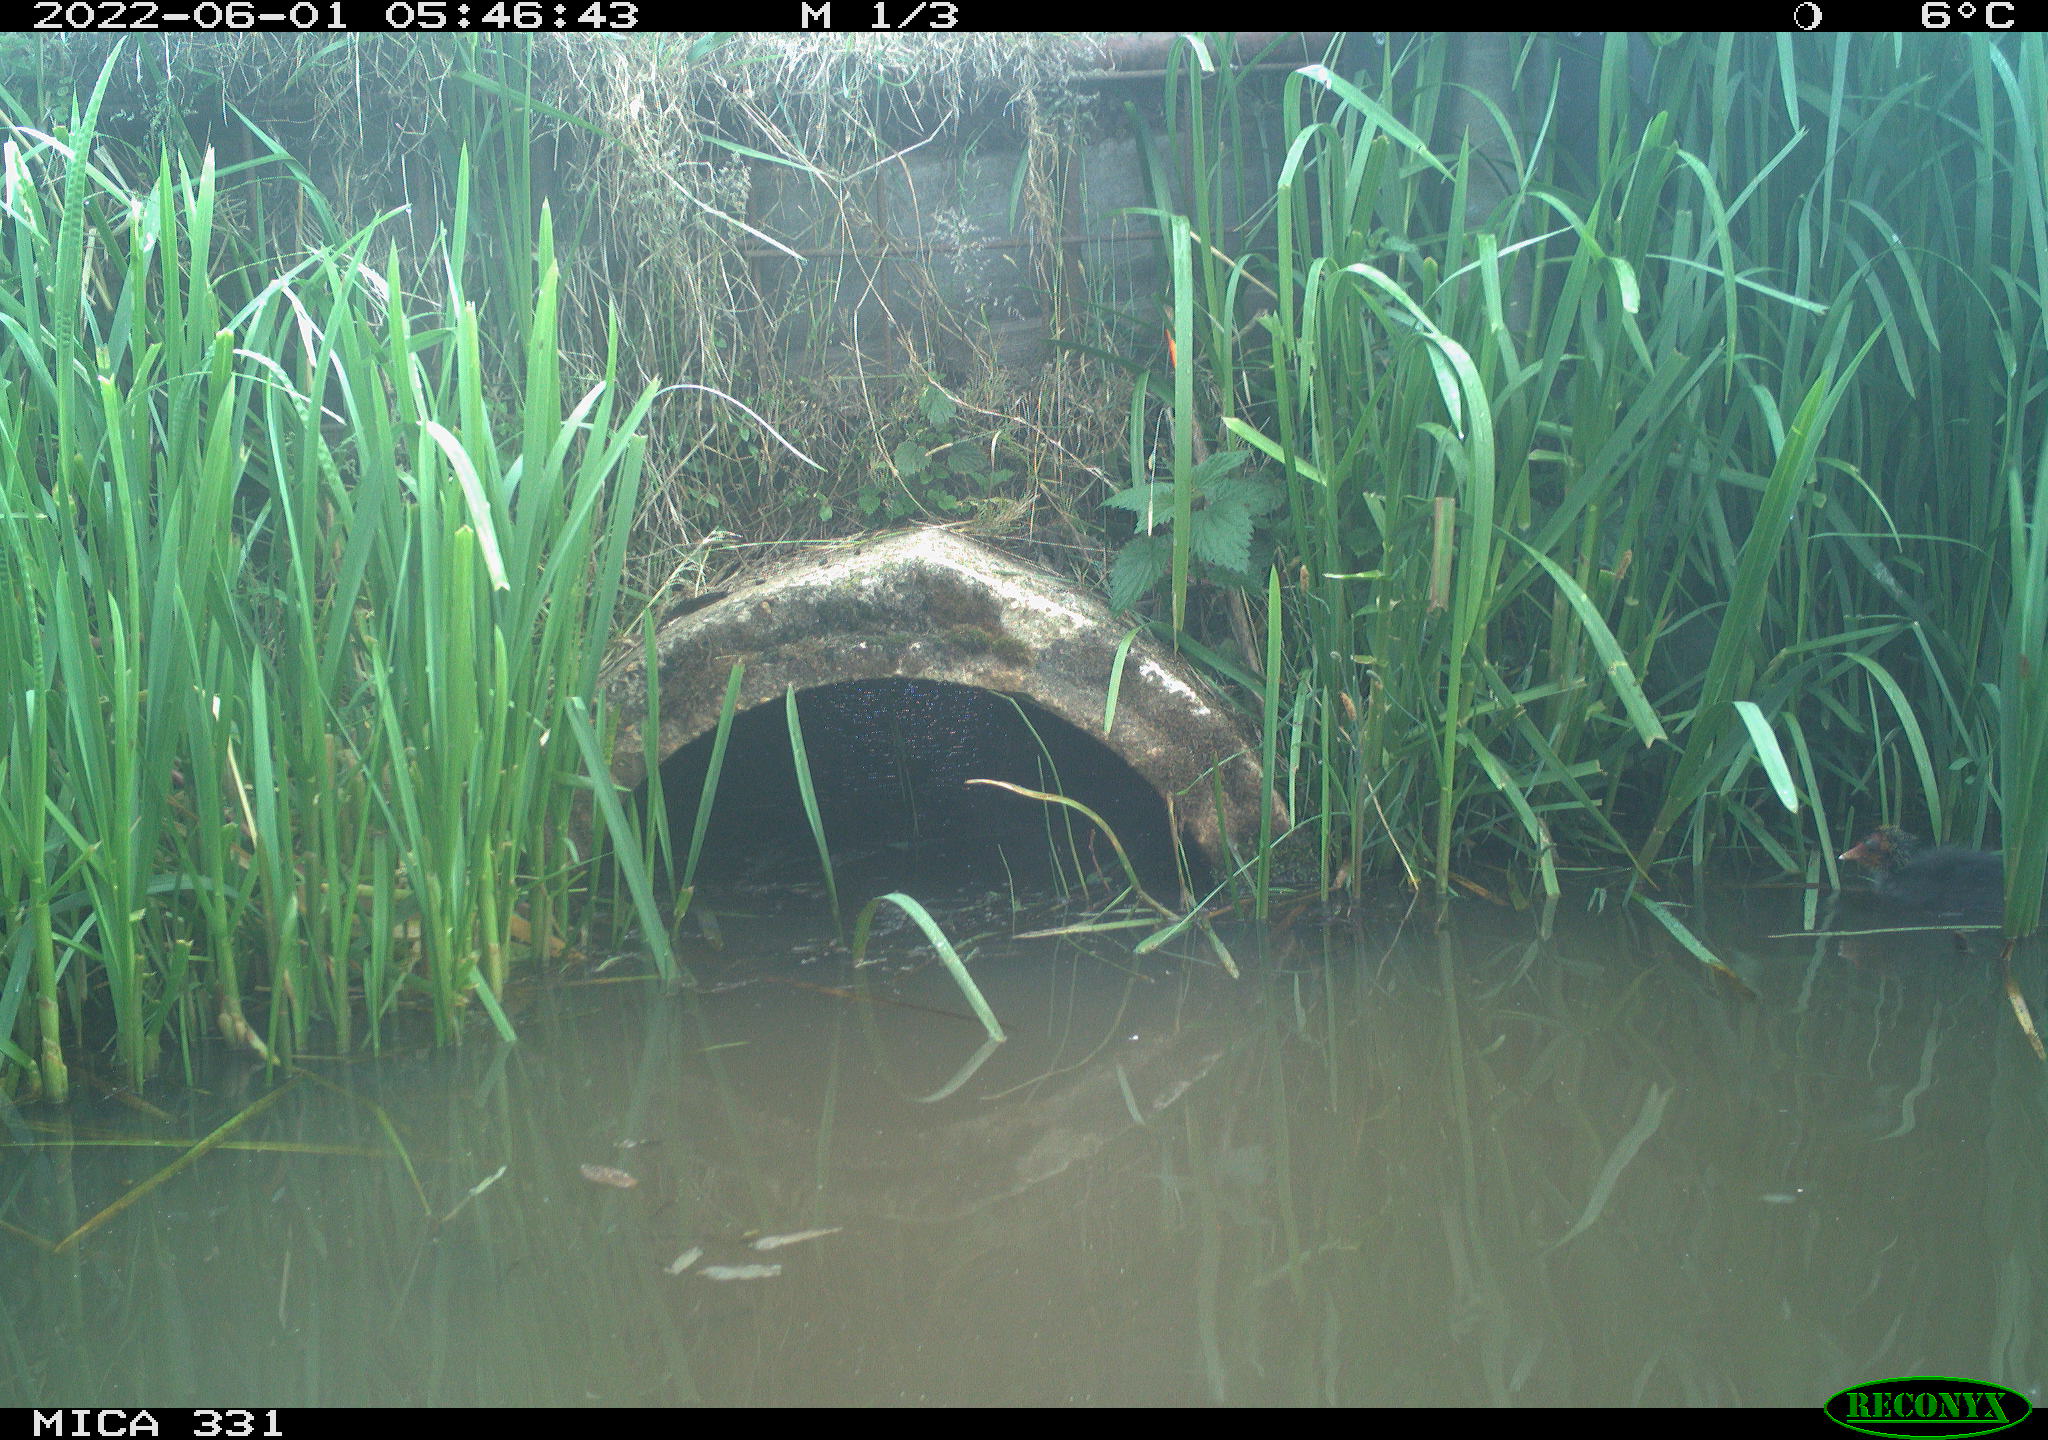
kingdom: Animalia
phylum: Chordata
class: Aves
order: Gruiformes
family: Rallidae
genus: Fulica
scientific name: Fulica atra
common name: Eurasian coot
